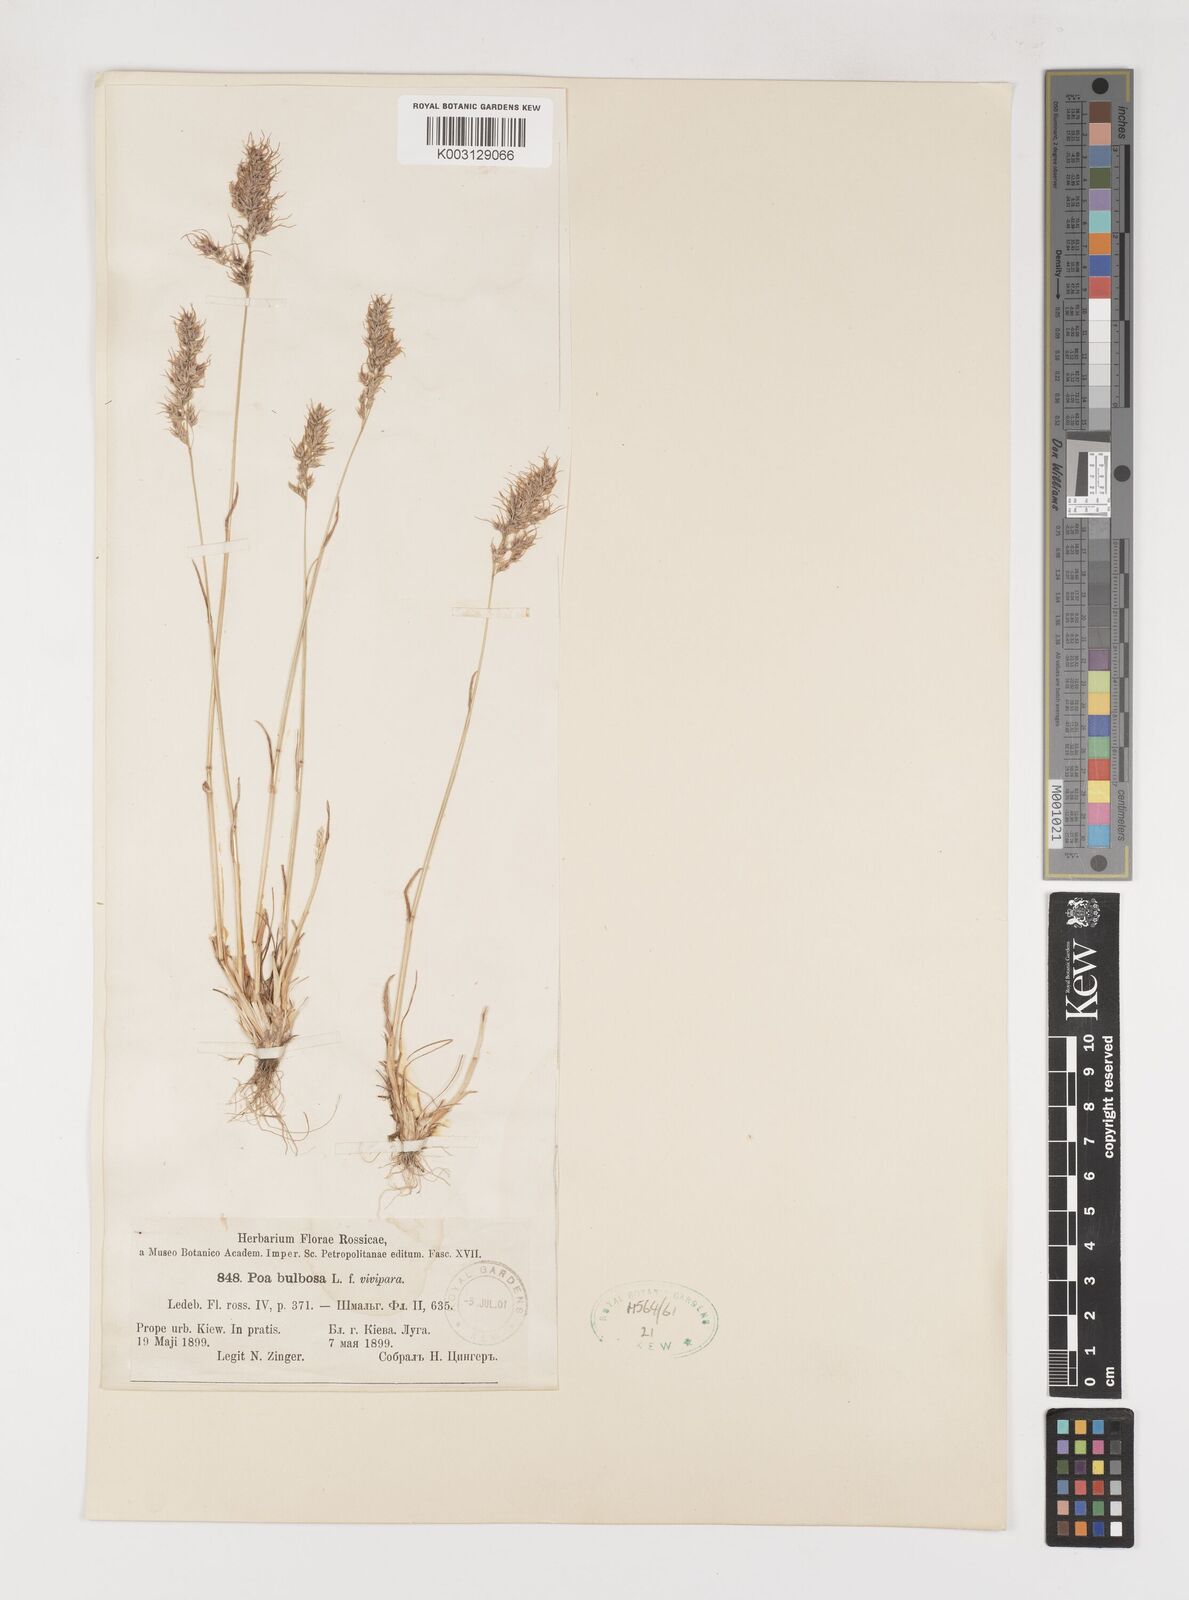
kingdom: Plantae
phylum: Tracheophyta
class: Liliopsida
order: Poales
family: Poaceae
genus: Poa
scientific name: Poa
